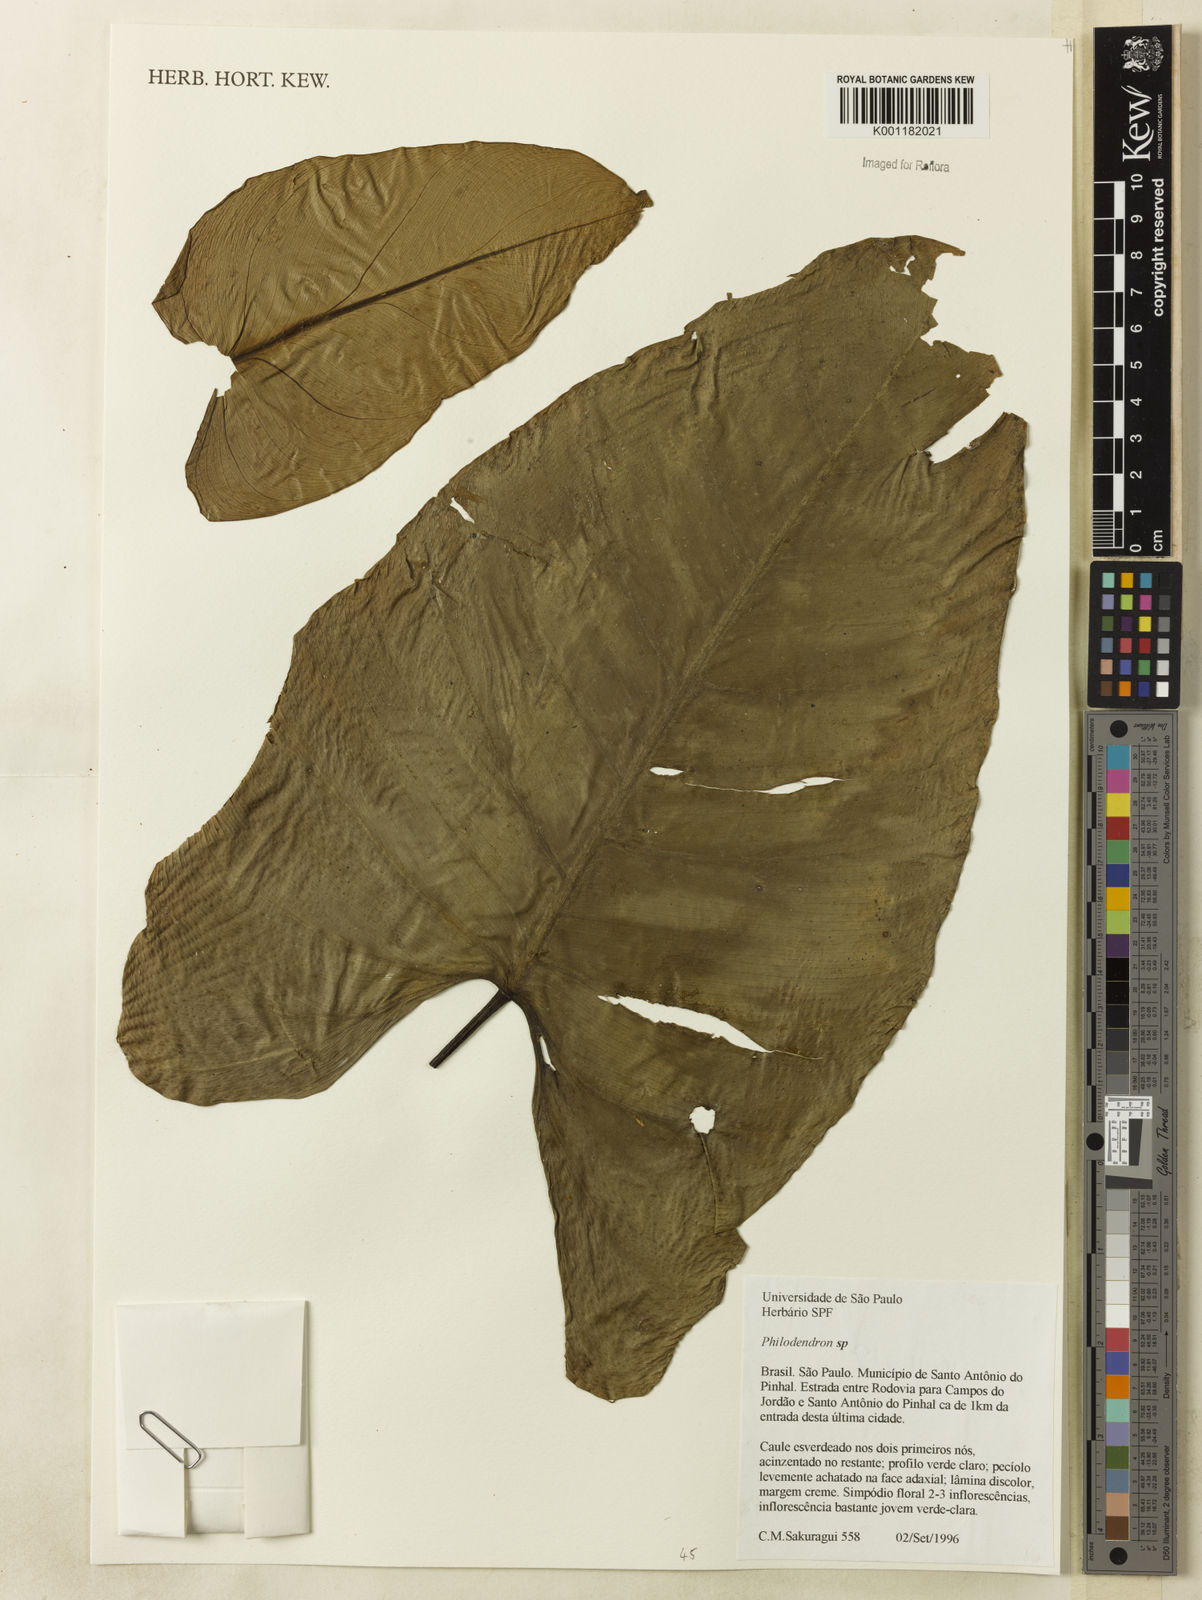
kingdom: Plantae
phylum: Tracheophyta
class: Liliopsida
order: Alismatales
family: Araceae
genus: Philodendron
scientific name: Philodendron
